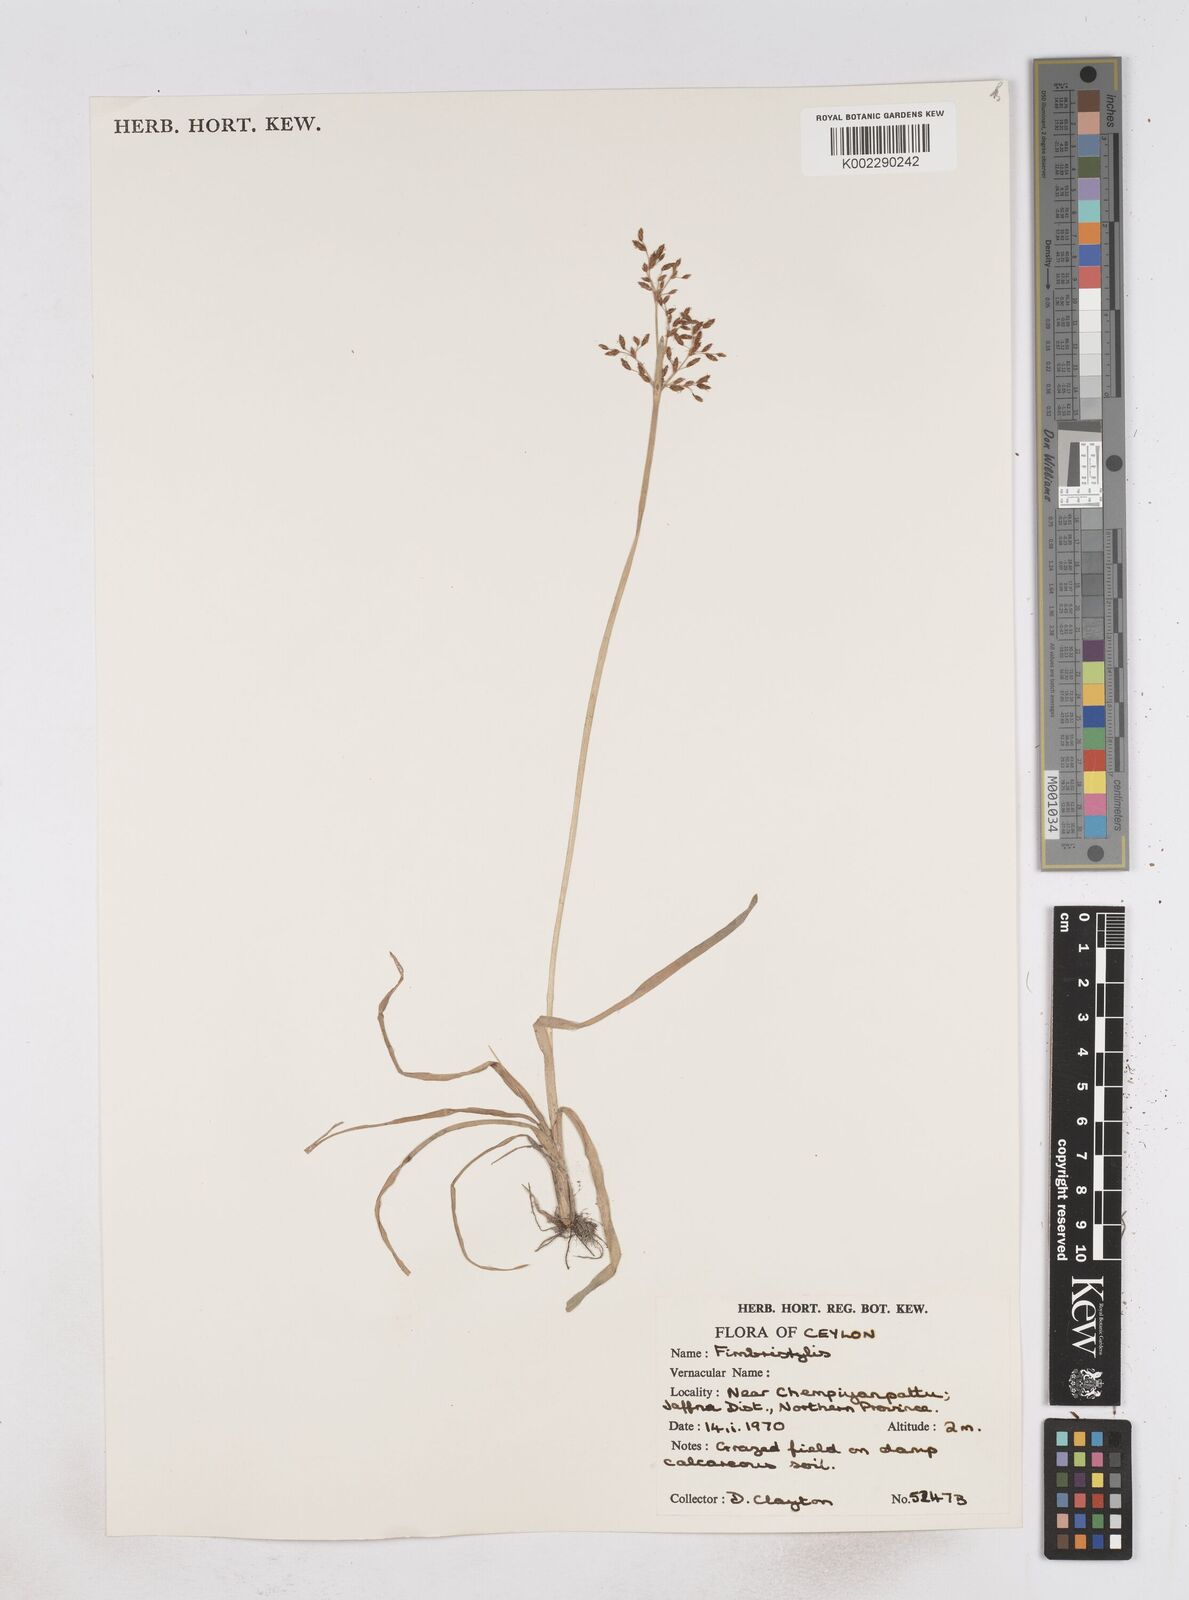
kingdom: Plantae
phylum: Tracheophyta
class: Liliopsida
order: Poales
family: Cyperaceae
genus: Fimbristylis
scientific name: Fimbristylis
